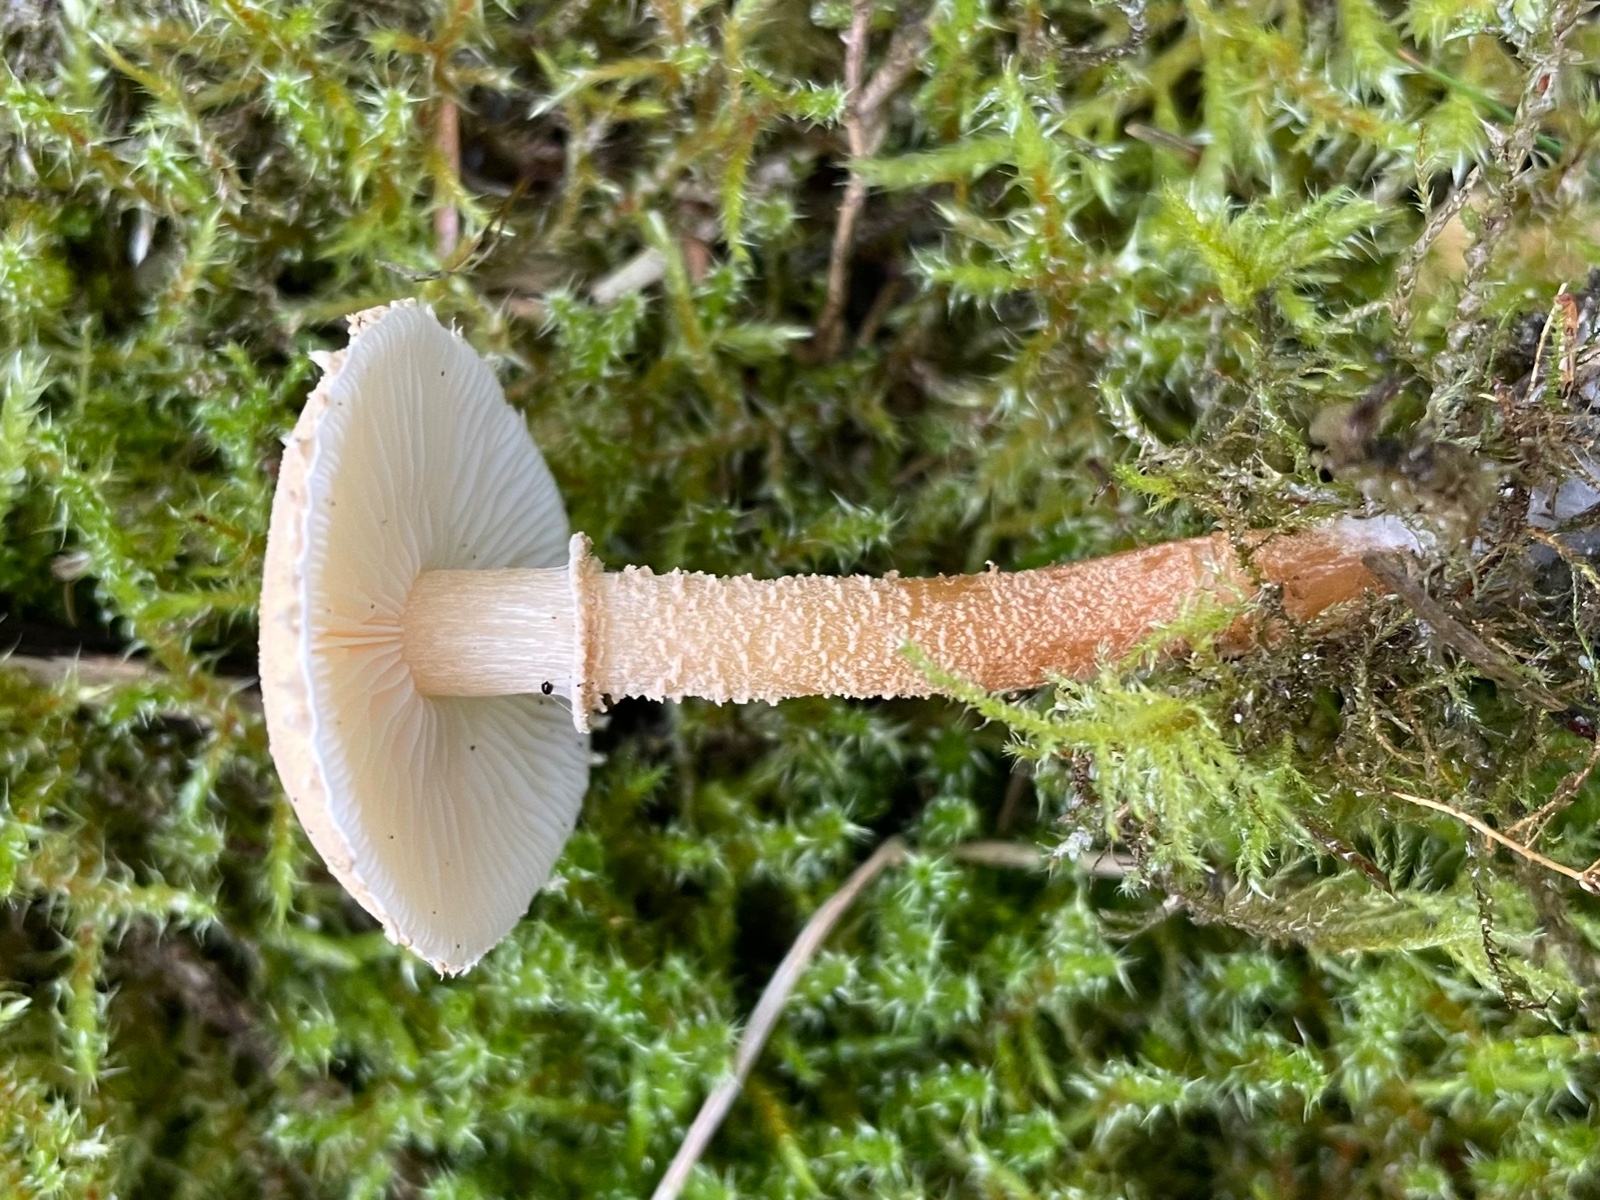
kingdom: Fungi
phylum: Basidiomycota
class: Agaricomycetes
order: Agaricales
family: Tricholomataceae
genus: Cystoderma
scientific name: Cystoderma
